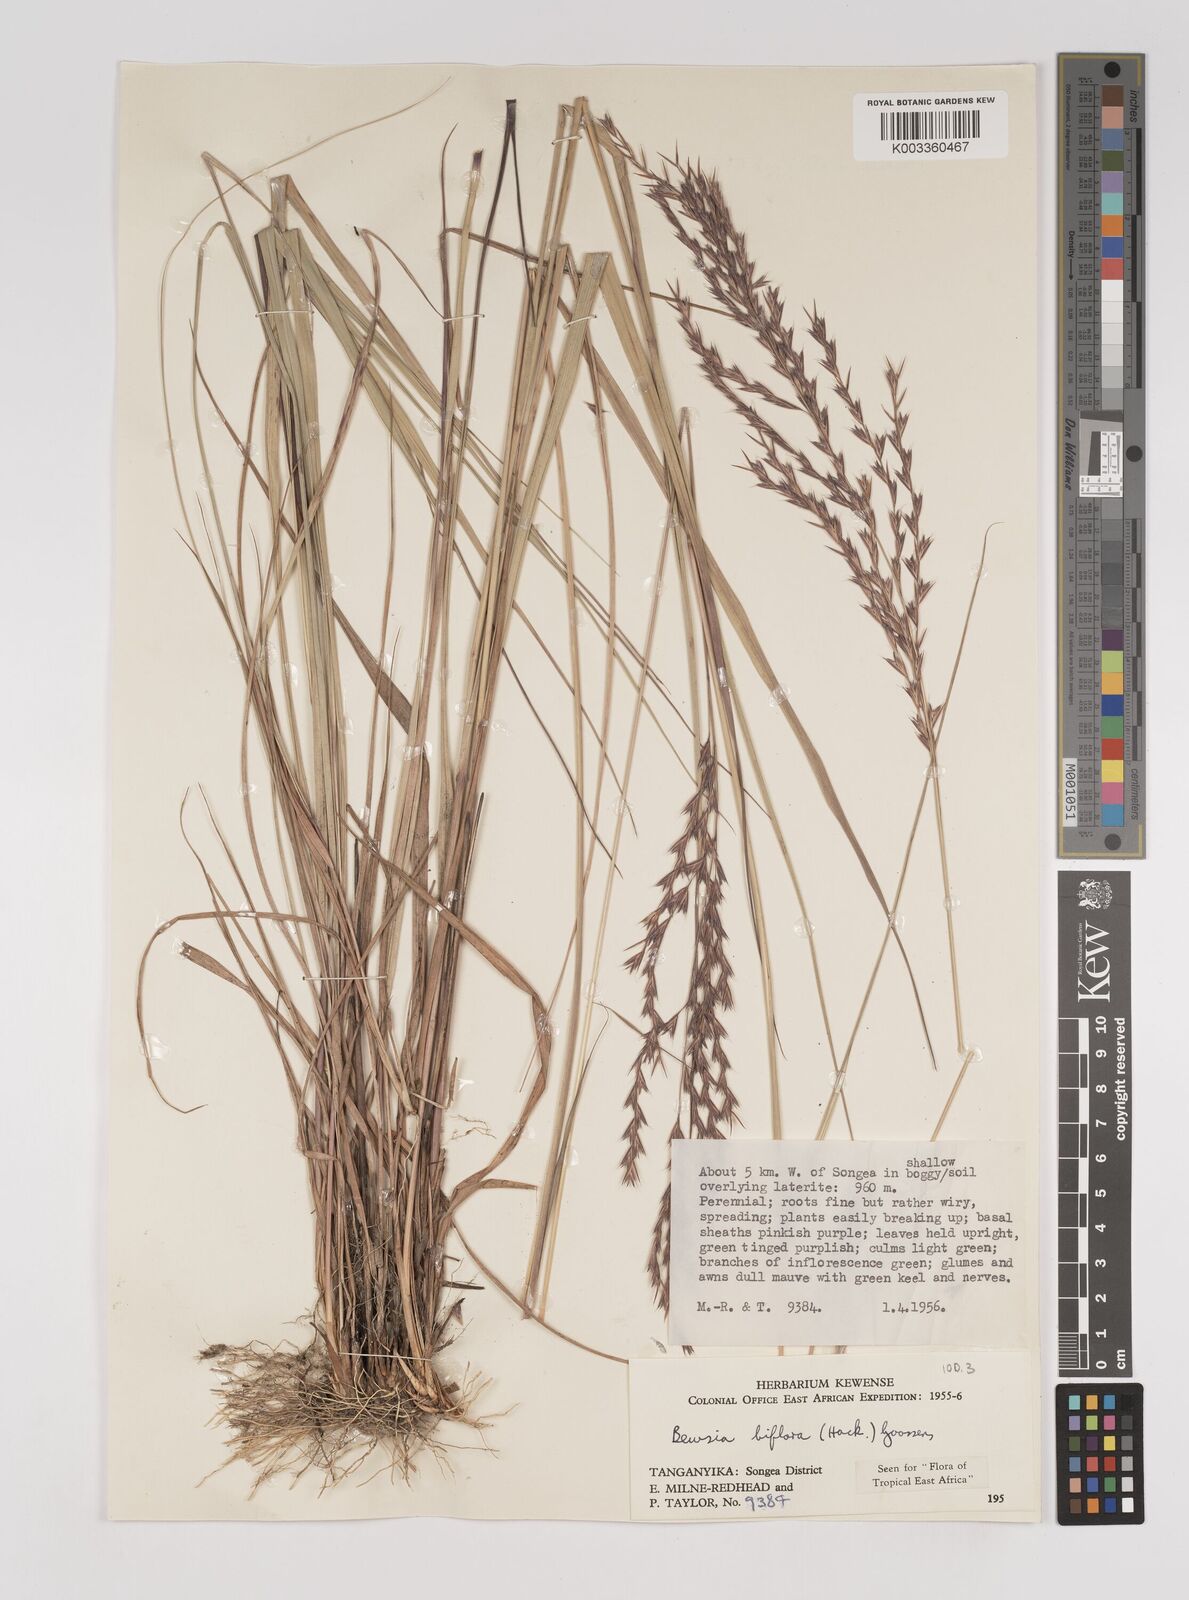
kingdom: Plantae
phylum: Tracheophyta
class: Liliopsida
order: Poales
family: Poaceae
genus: Bewsia
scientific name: Bewsia biflora
